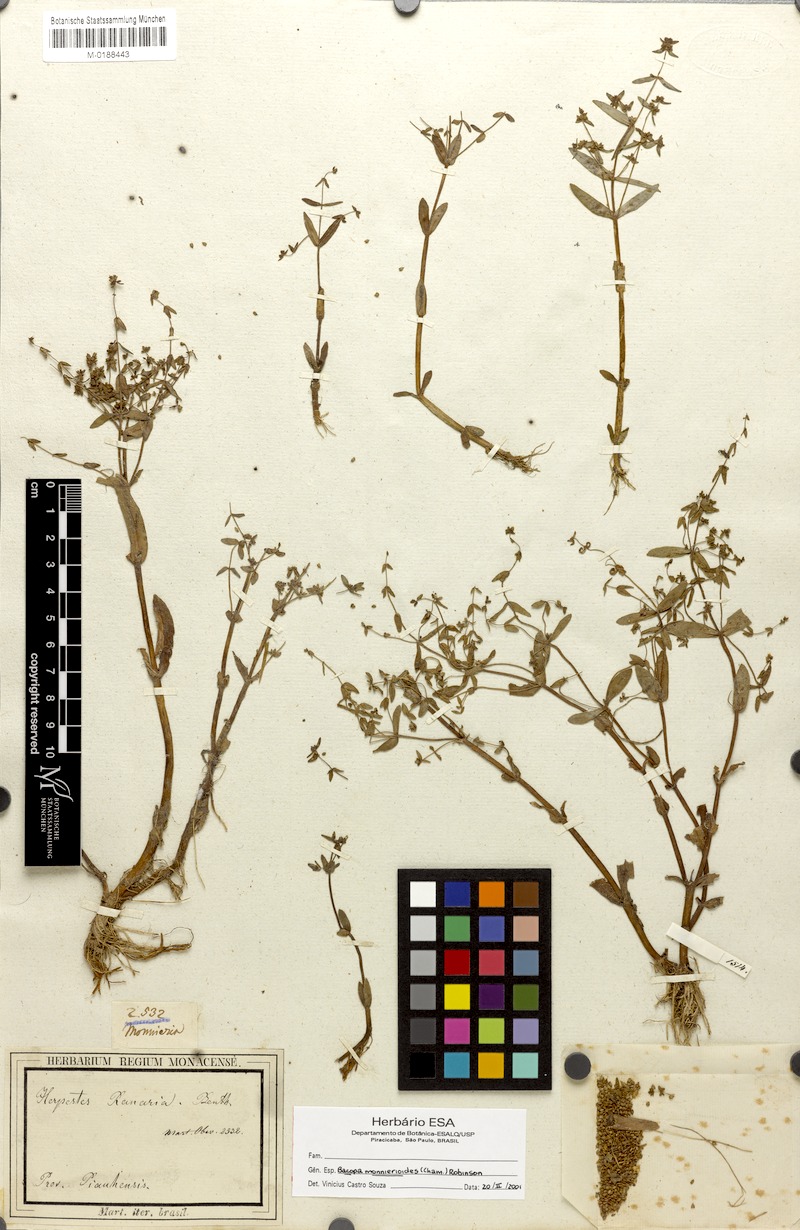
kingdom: Plantae
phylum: Tracheophyta
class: Magnoliopsida
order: Lamiales
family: Plantaginaceae
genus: Bacopa
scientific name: Bacopa monnierioides
